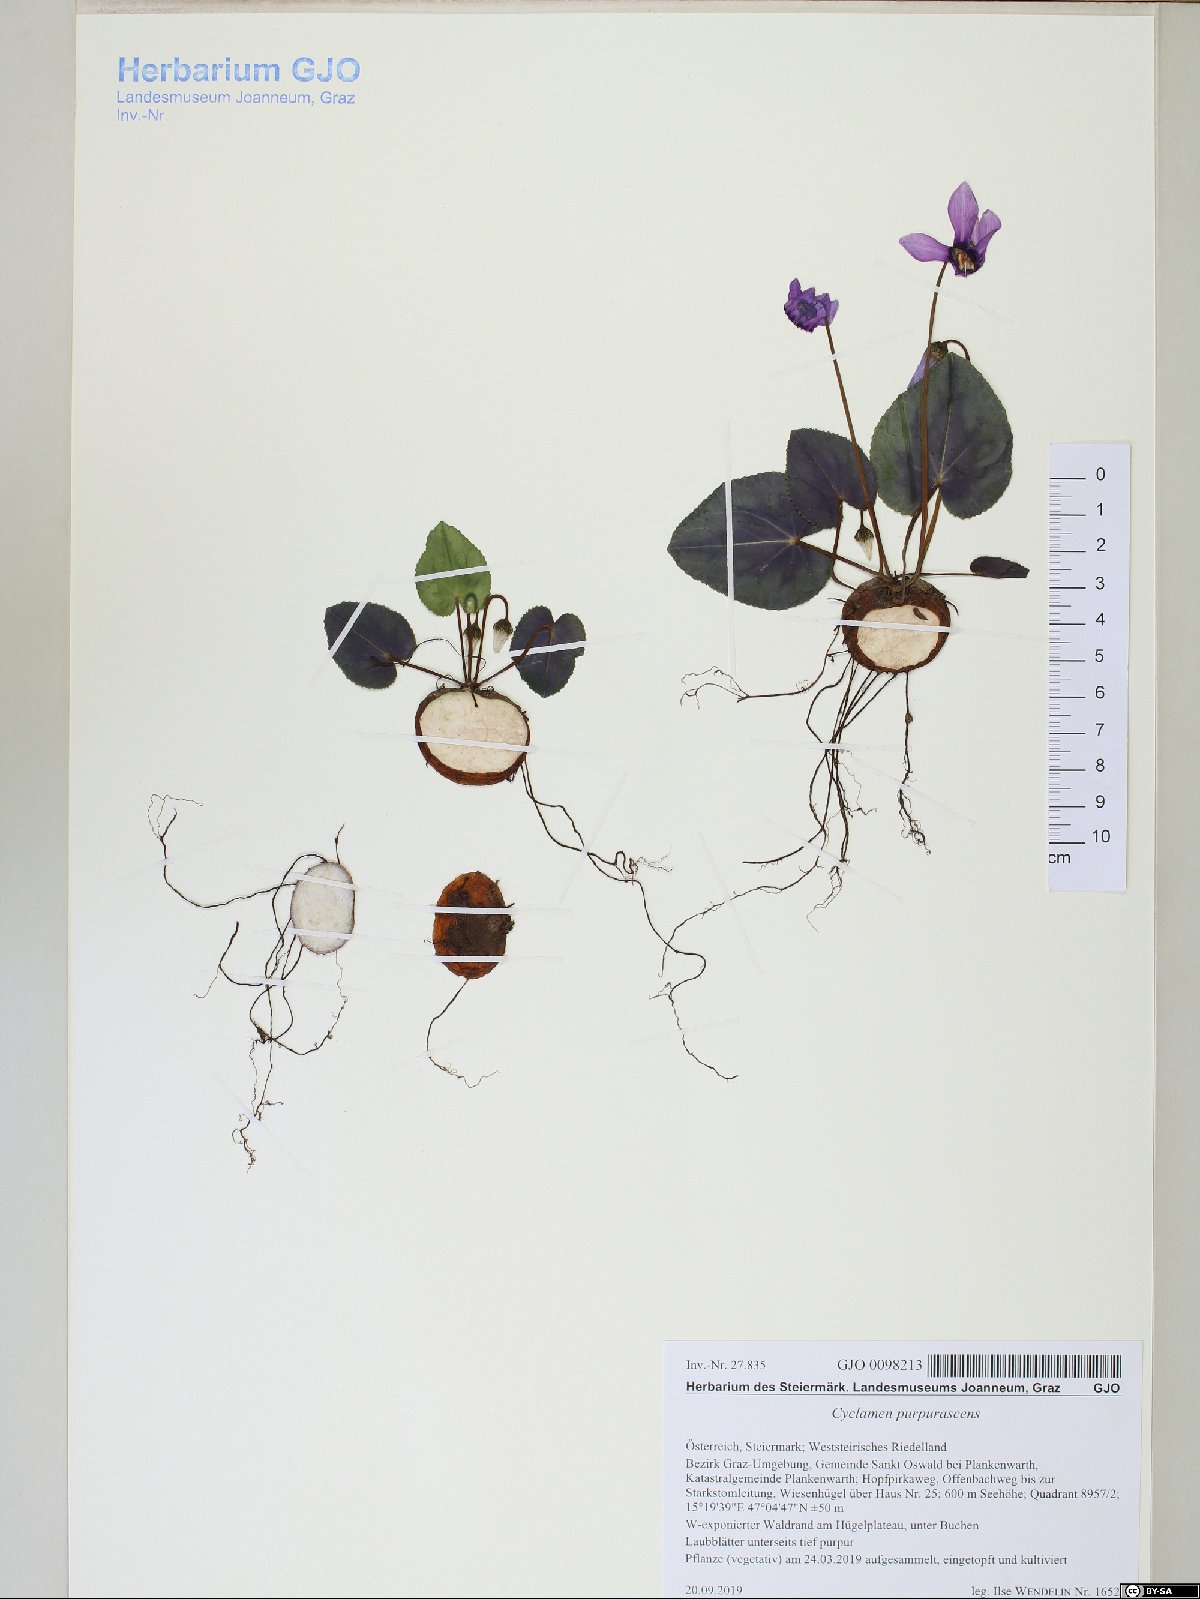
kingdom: Plantae
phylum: Tracheophyta
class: Magnoliopsida
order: Ericales
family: Primulaceae
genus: Cyclamen
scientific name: Cyclamen purpurascens
